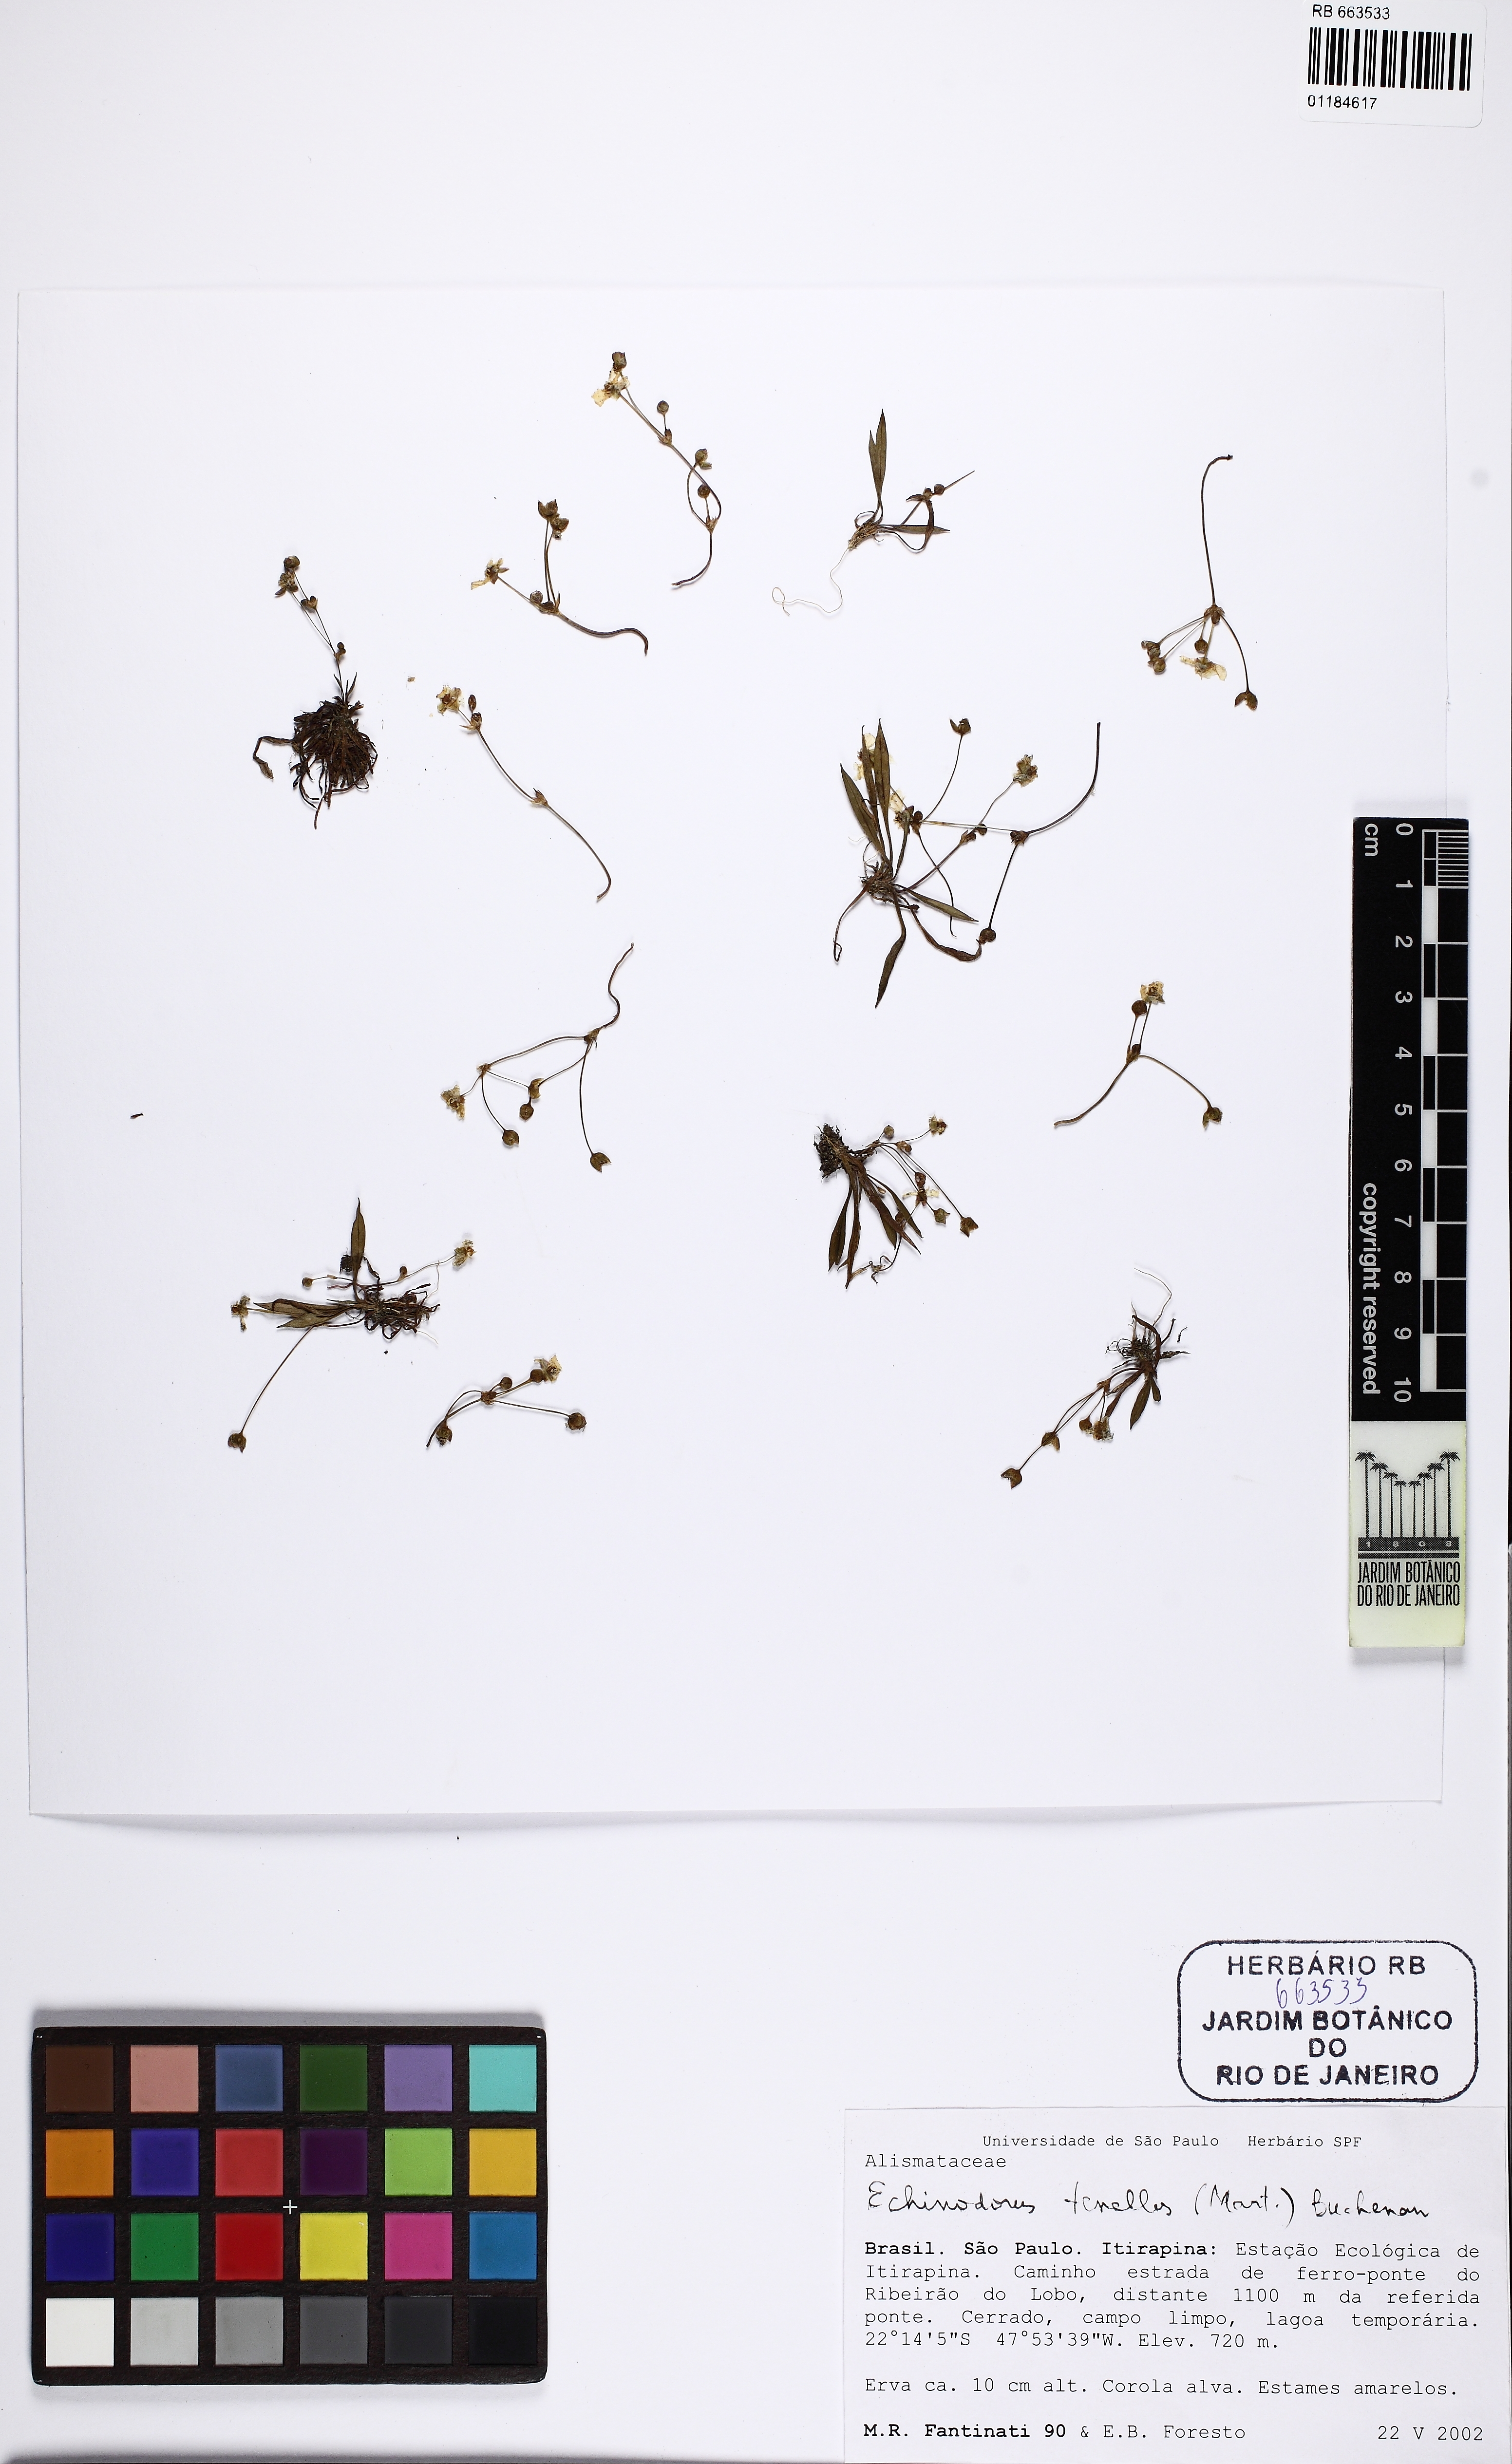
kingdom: Plantae
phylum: Tracheophyta
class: Liliopsida
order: Alismatales
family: Alismataceae
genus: Helanthium
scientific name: Helanthium tenellum
